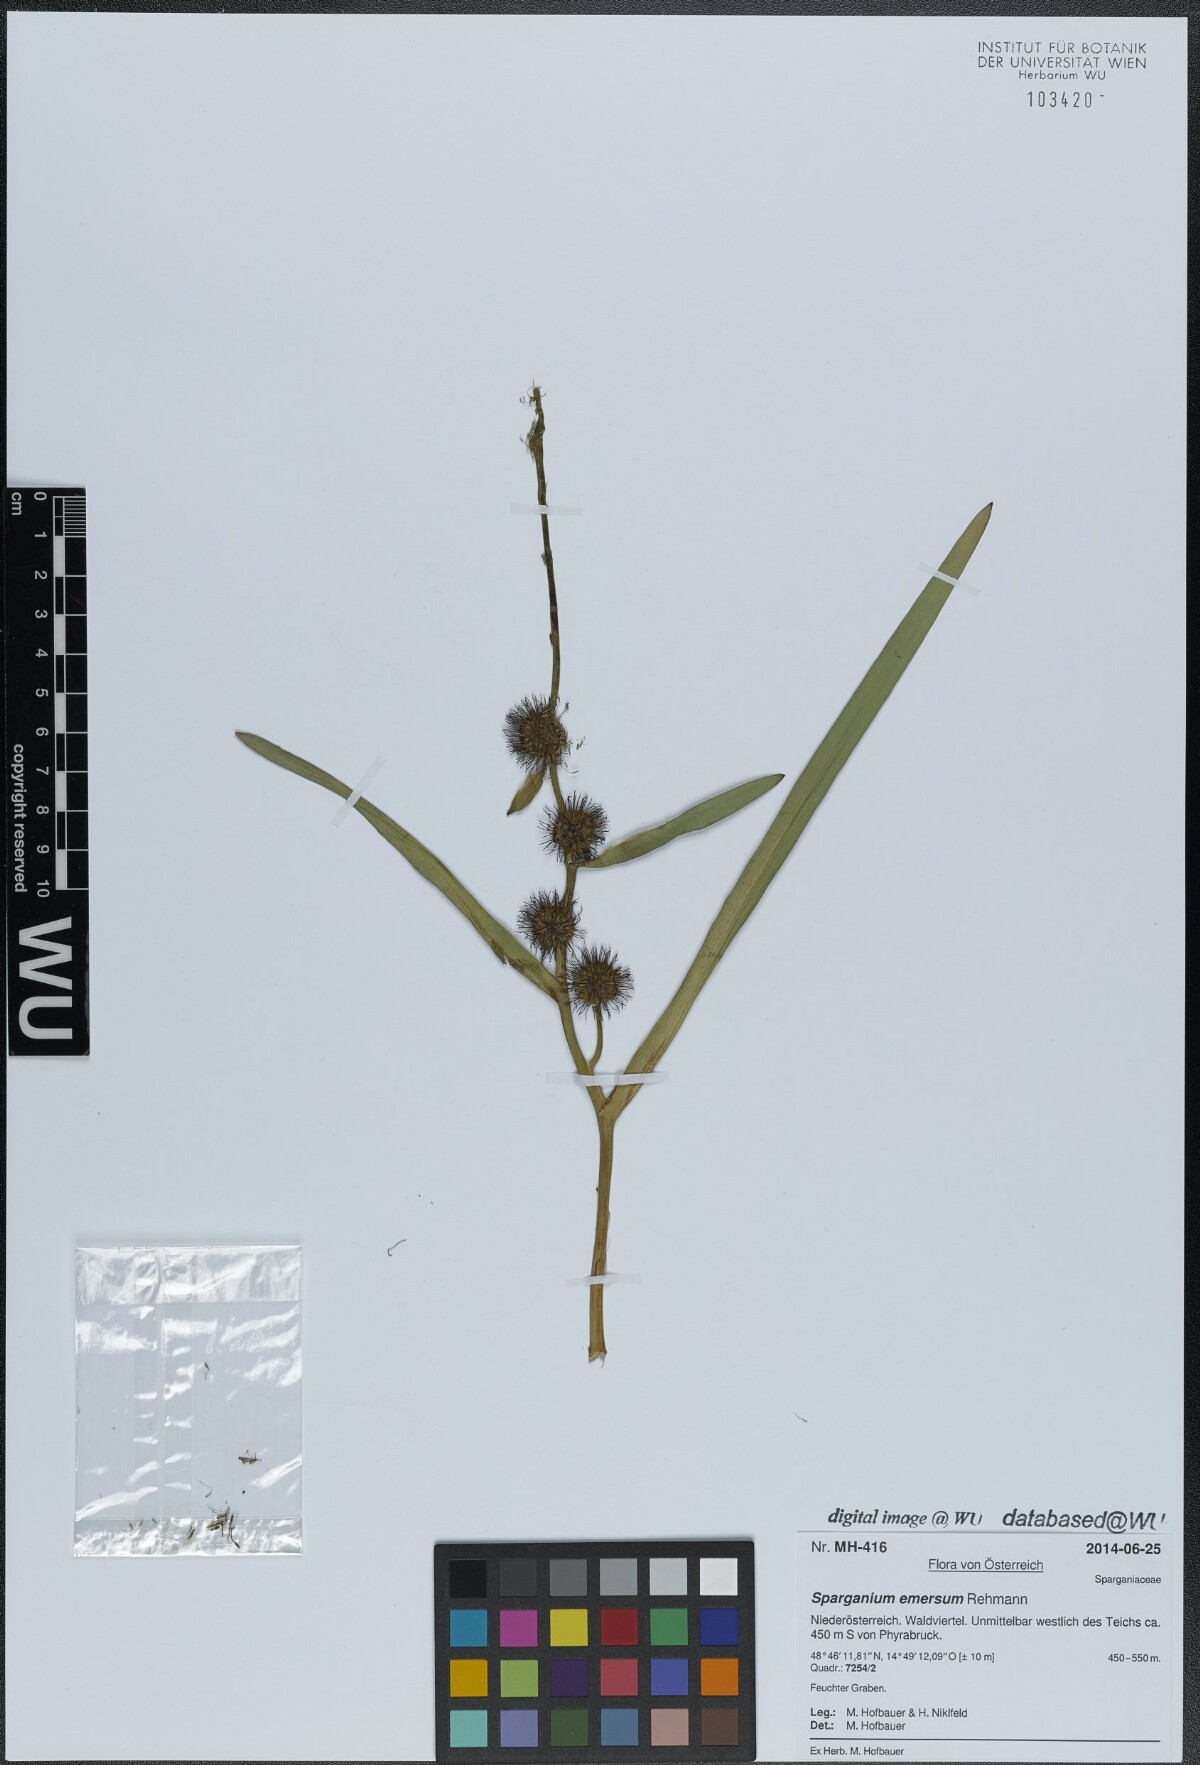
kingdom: Plantae
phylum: Tracheophyta
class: Liliopsida
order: Poales
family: Typhaceae
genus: Sparganium
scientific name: Sparganium emersum
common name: Unbranched bur-reed
